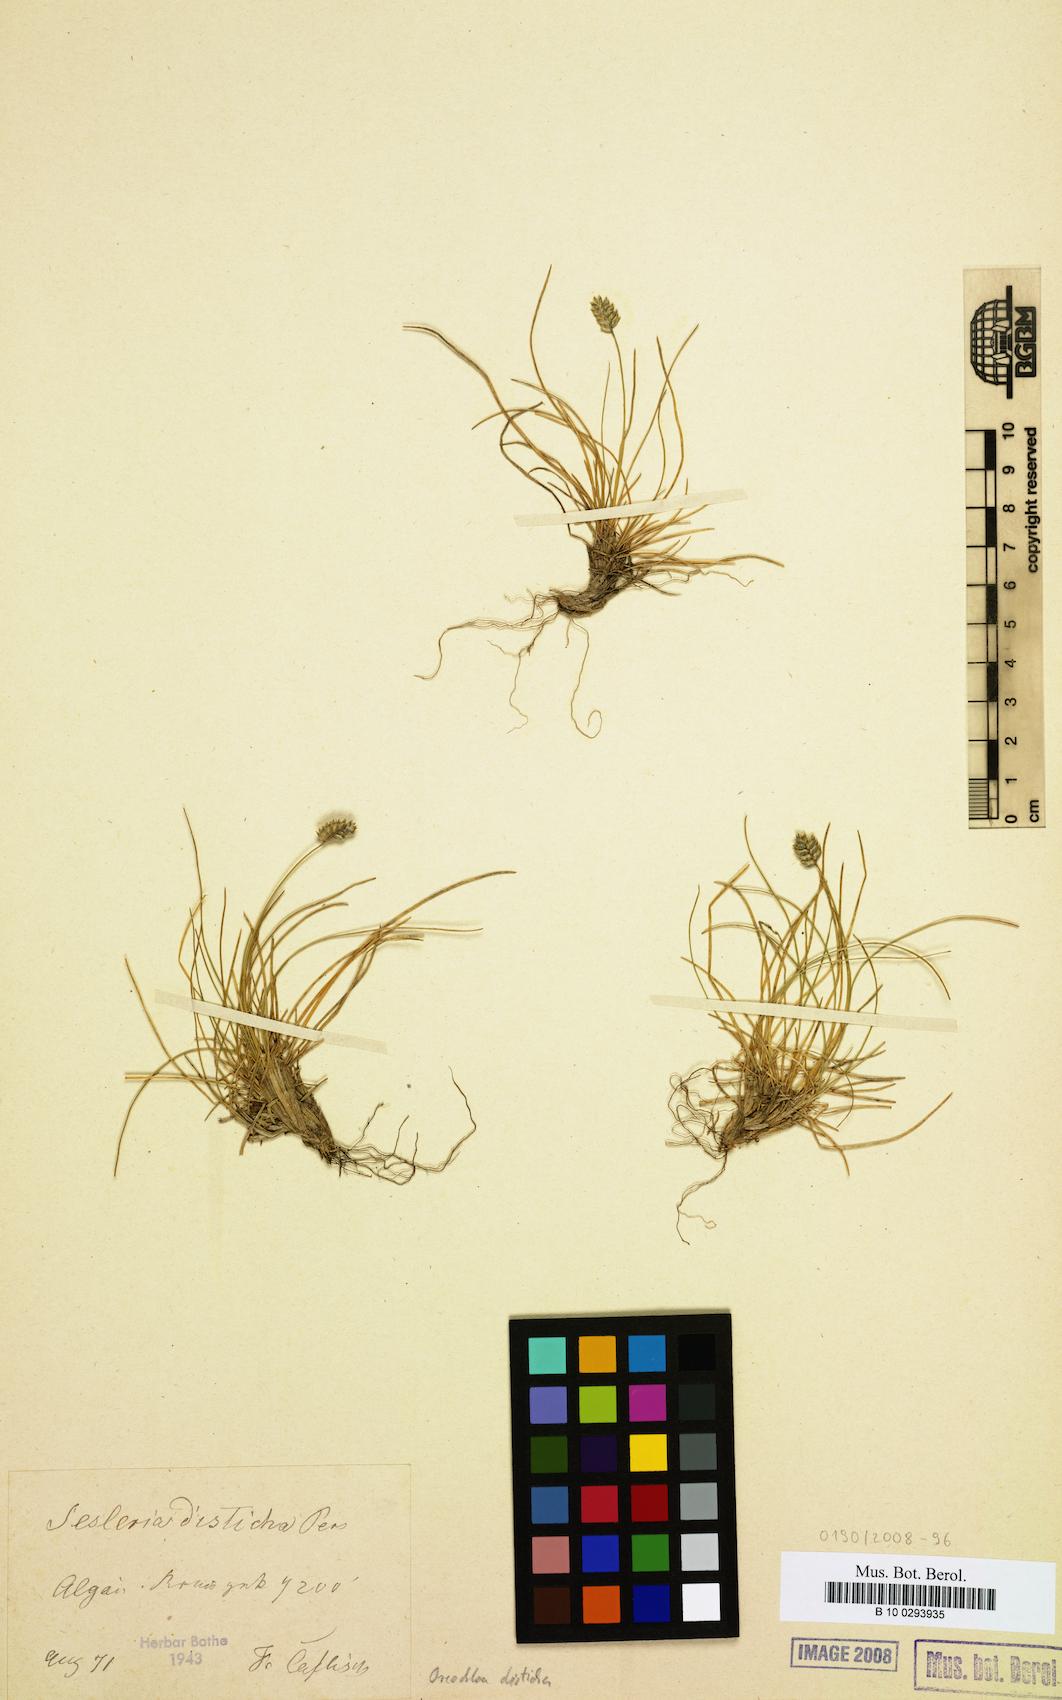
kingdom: Plantae
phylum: Tracheophyta
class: Liliopsida
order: Poales
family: Poaceae
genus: Oreochloa
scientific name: Oreochloa disticha
